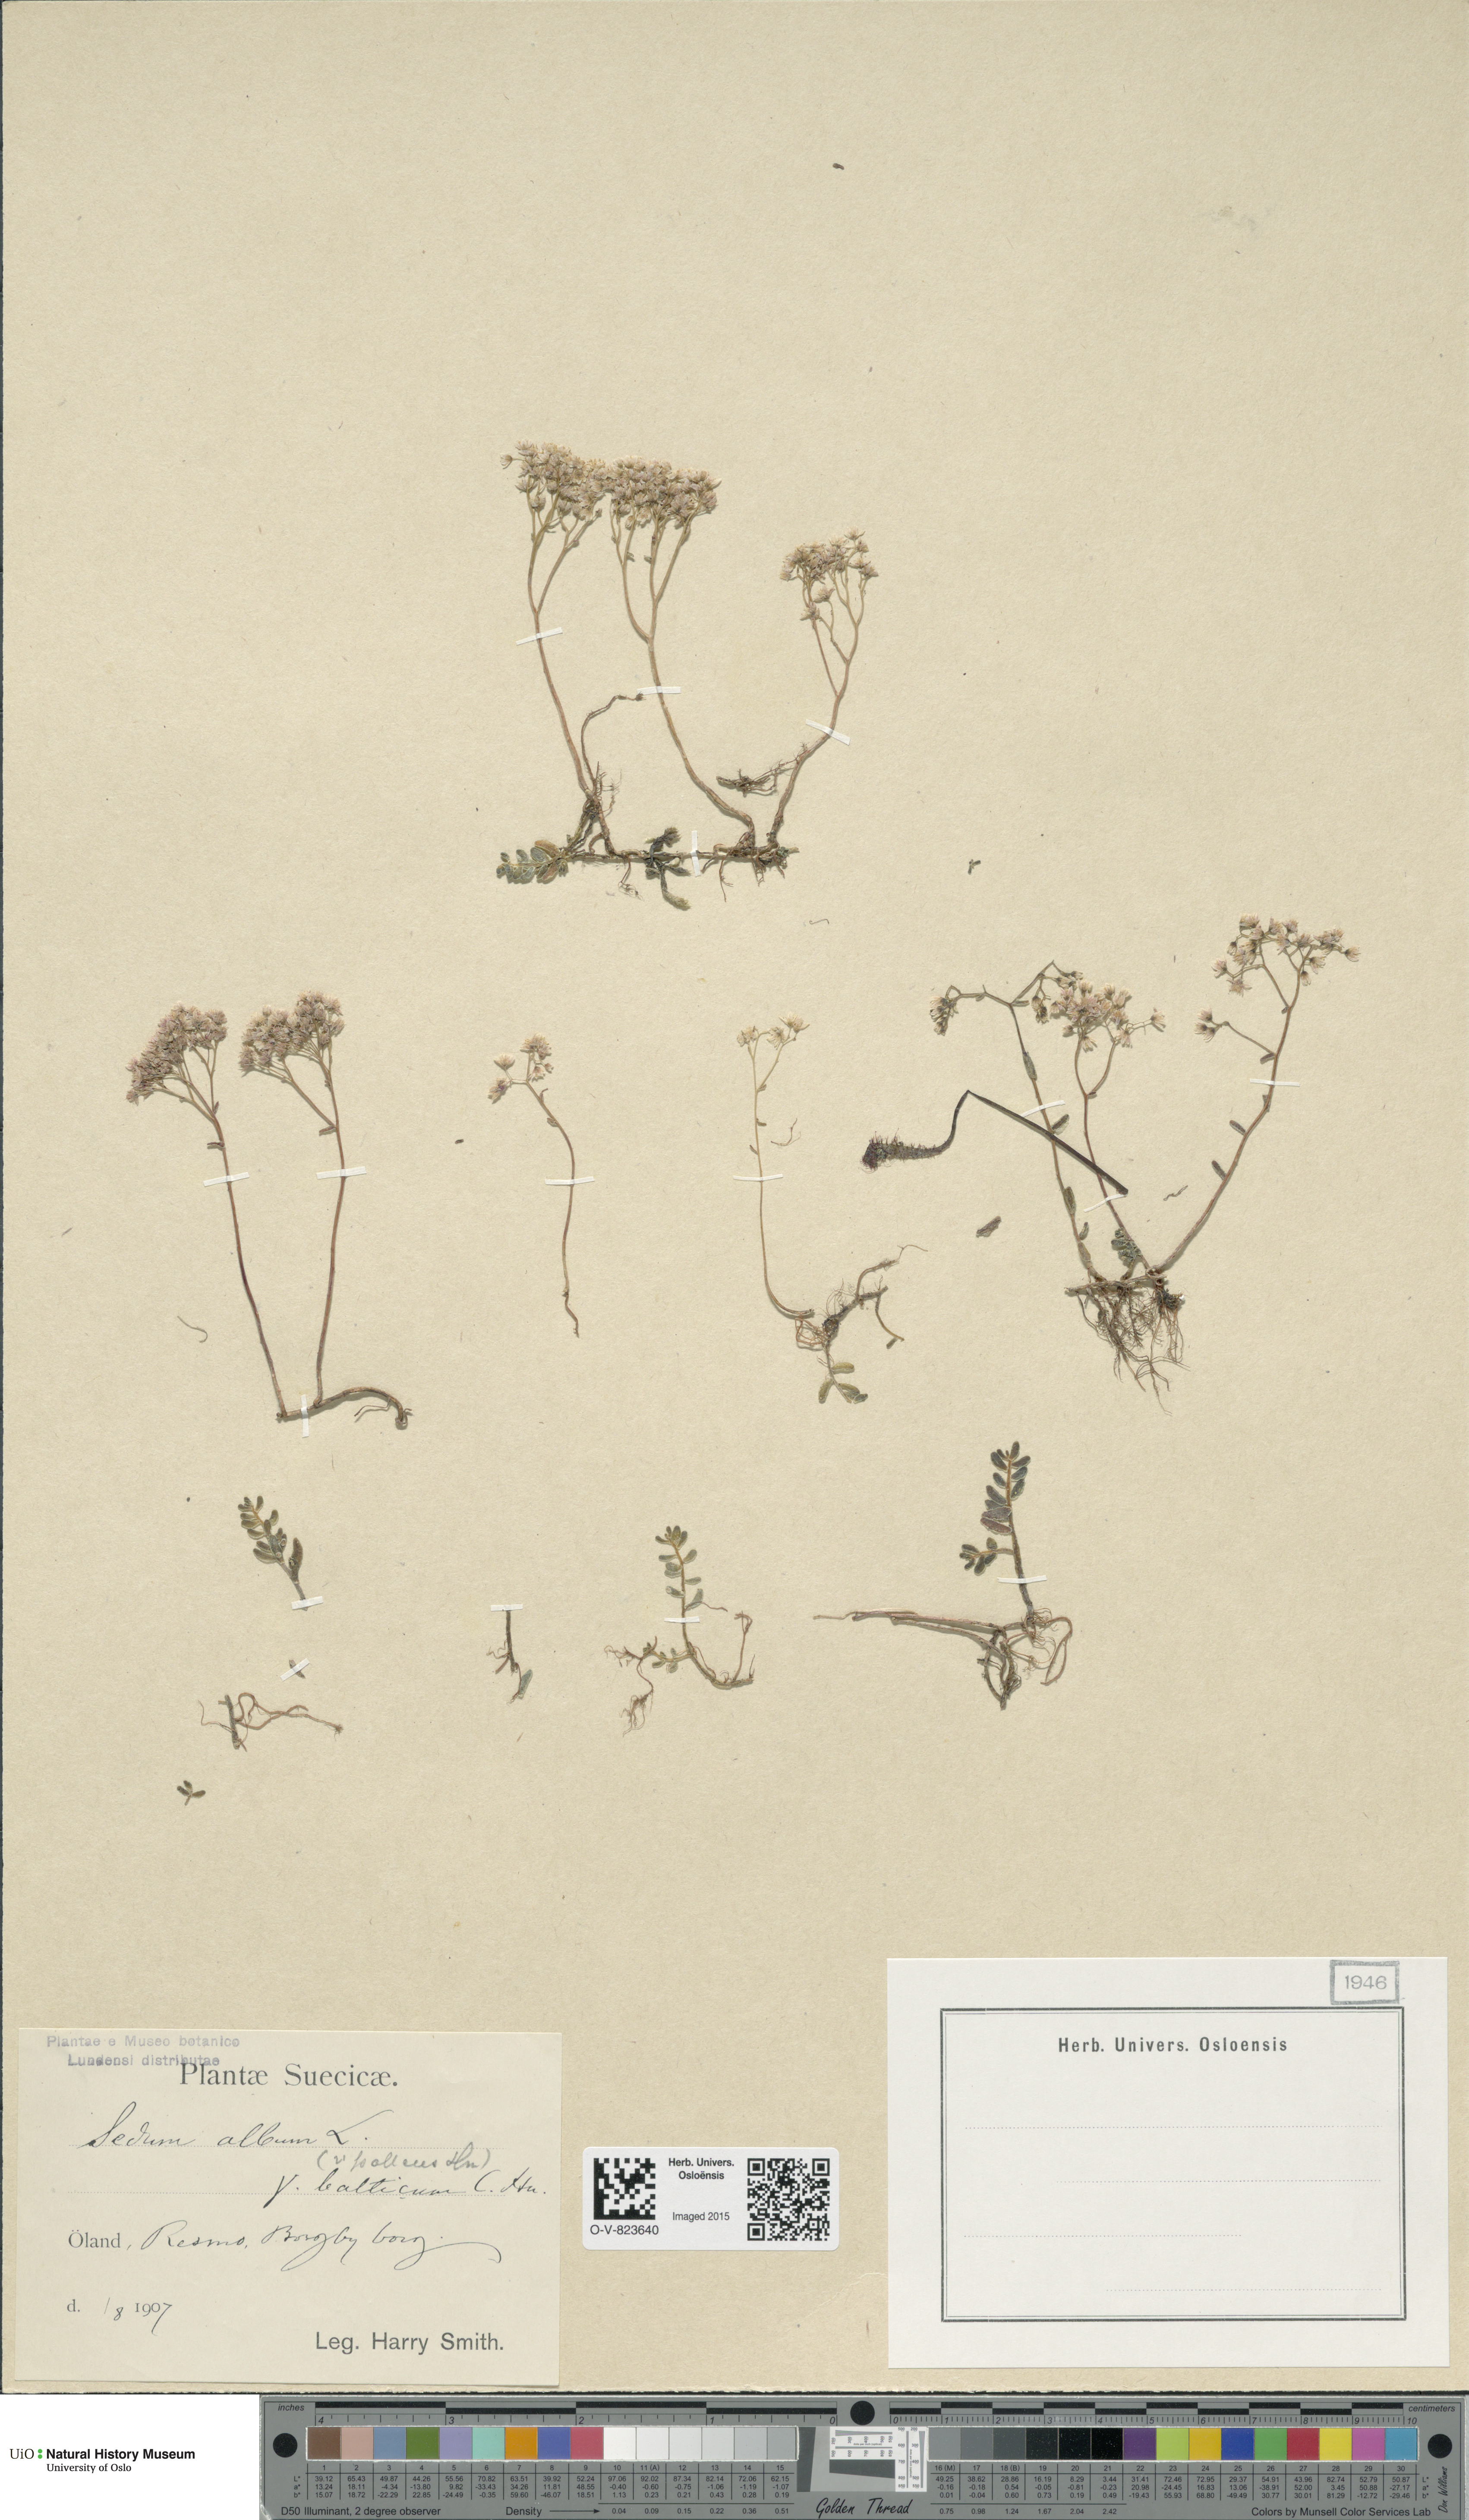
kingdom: Plantae
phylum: Tracheophyta
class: Magnoliopsida
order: Saxifragales
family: Crassulaceae
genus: Sedum
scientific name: Sedum album
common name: White stonecrop
